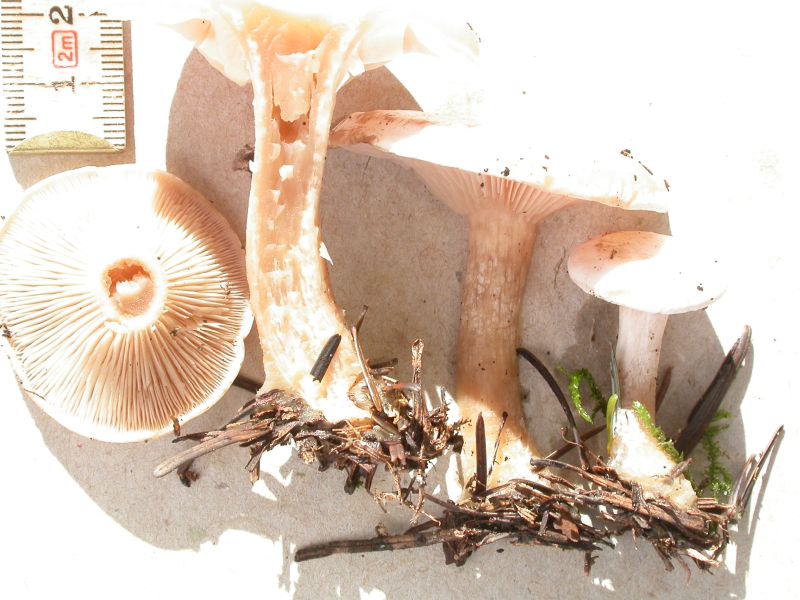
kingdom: Fungi
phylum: Basidiomycota
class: Agaricomycetes
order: Agaricales
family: Tricholomataceae
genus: Clitocybe
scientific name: Clitocybe phyllophila
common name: løv-tragthat
